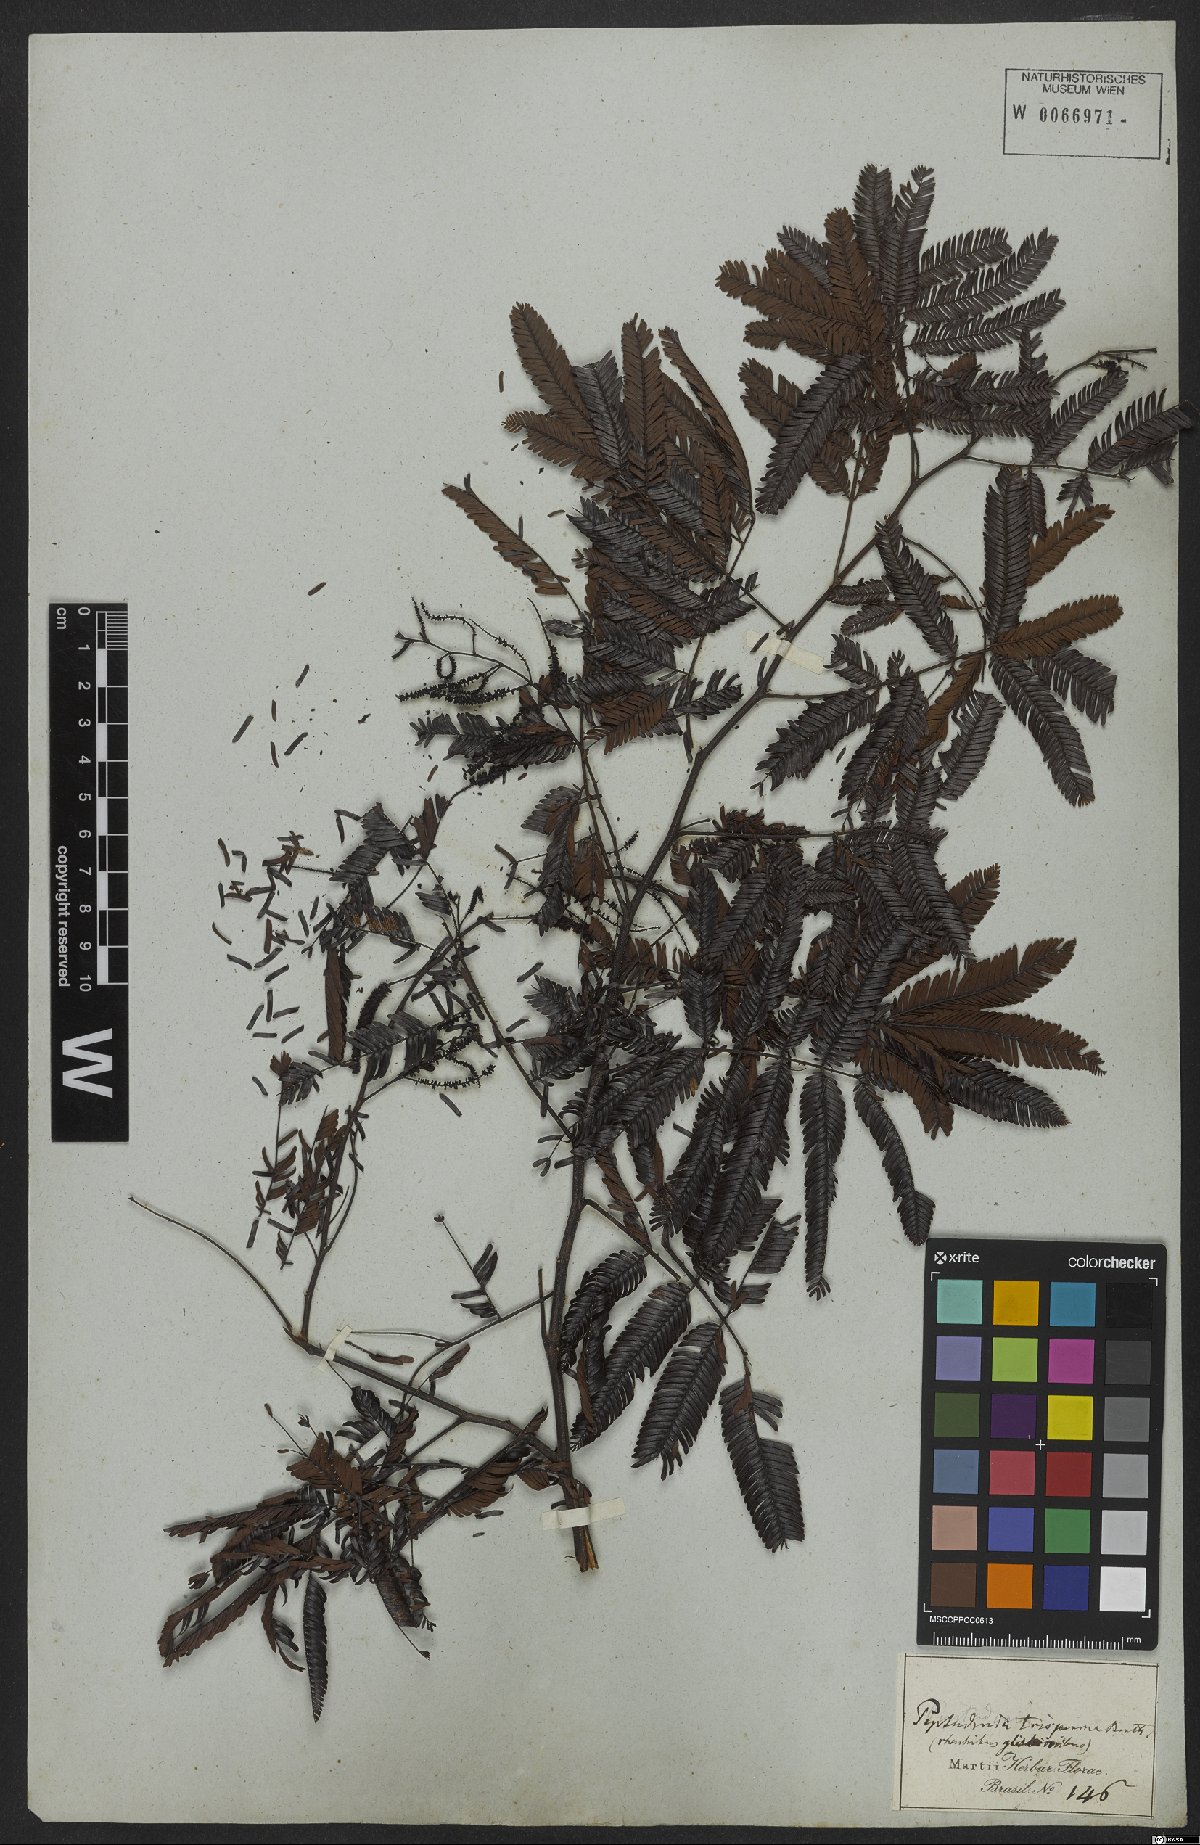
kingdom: Plantae
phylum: Tracheophyta
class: Magnoliopsida
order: Fabales
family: Fabaceae
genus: Piptadenia
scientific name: Piptadenia trisperma
